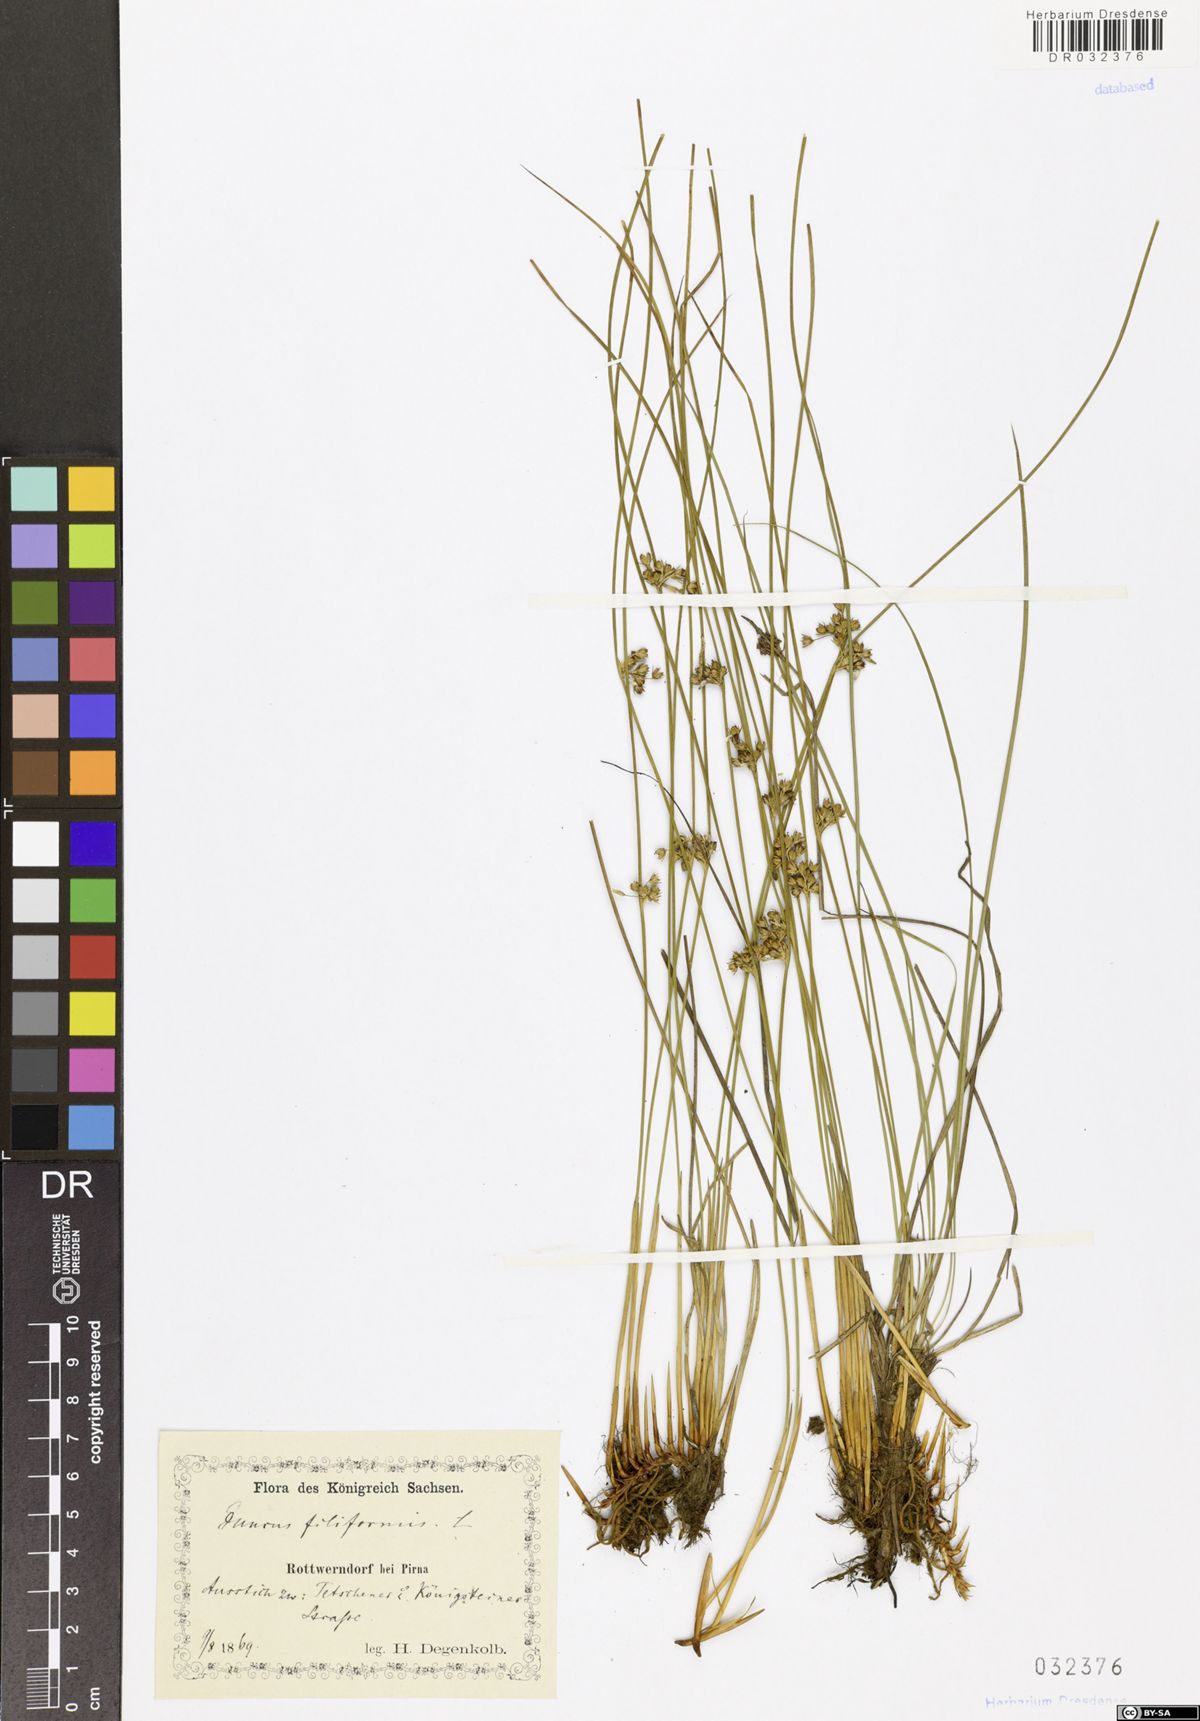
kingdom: Plantae
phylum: Tracheophyta
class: Liliopsida
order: Poales
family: Juncaceae
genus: Juncus
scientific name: Juncus inflexus
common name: Hard rush
